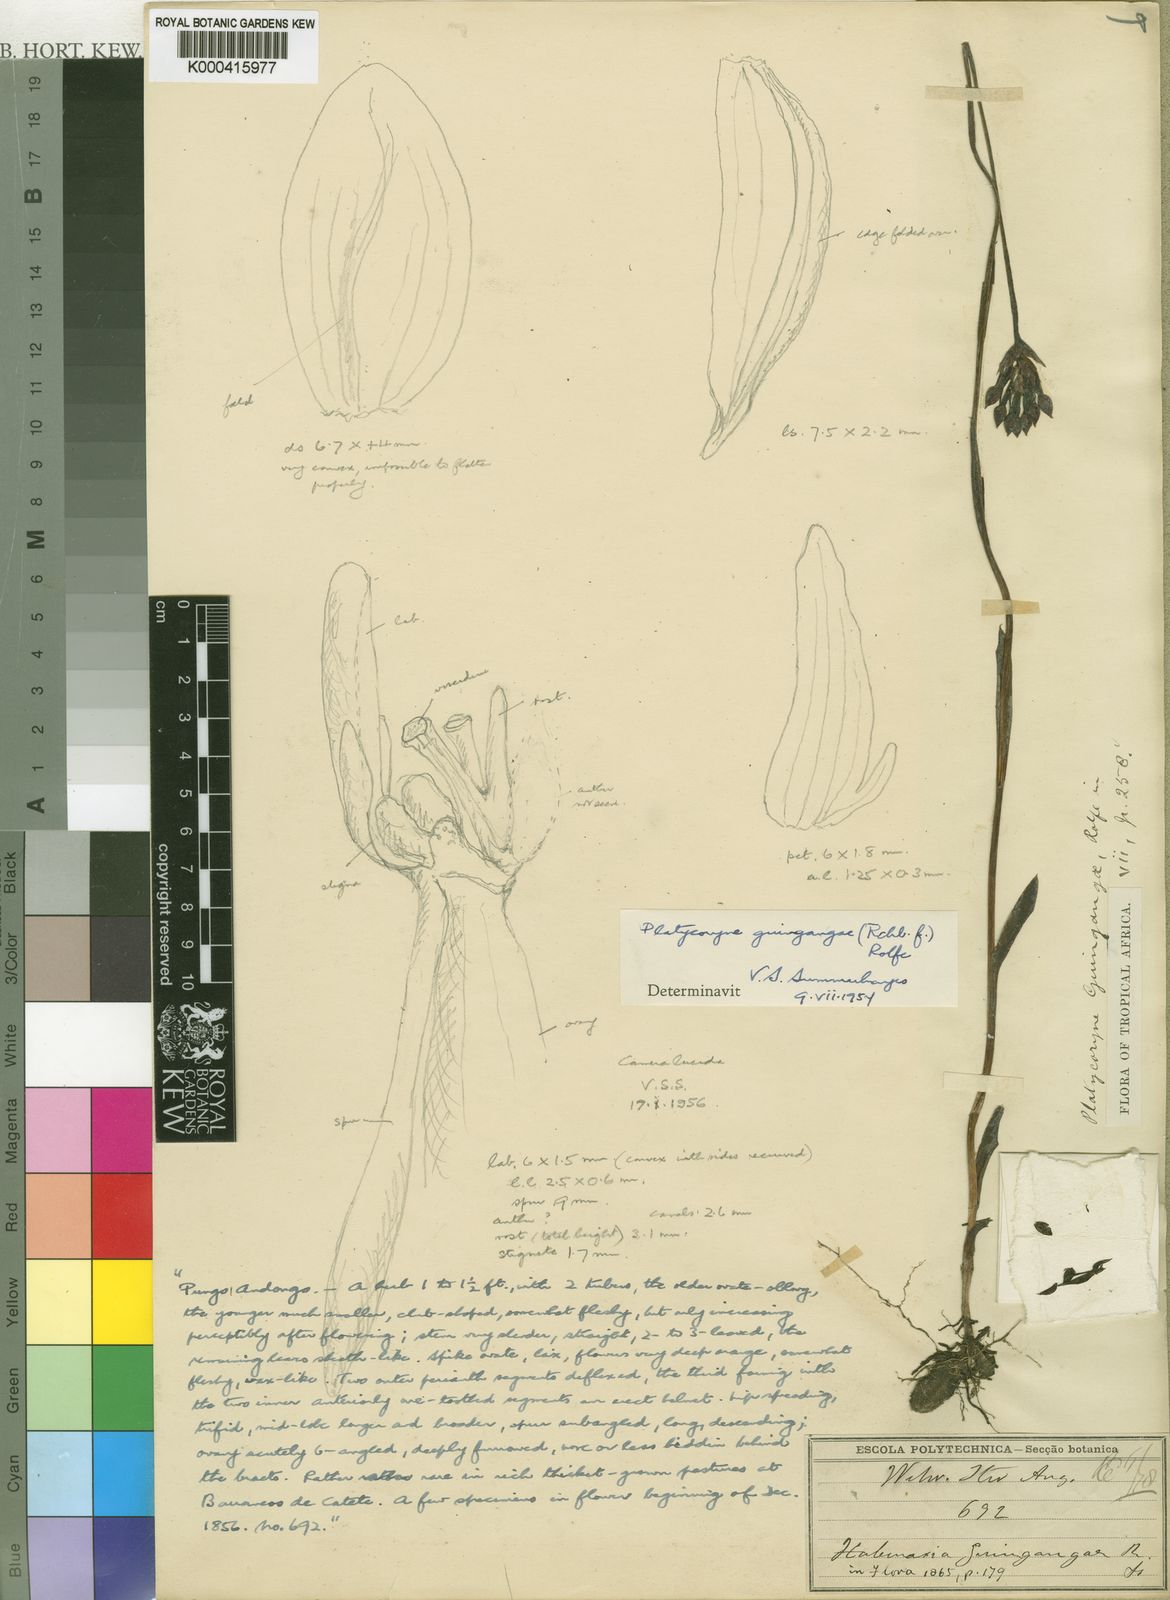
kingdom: Plantae
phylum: Tracheophyta
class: Liliopsida
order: Asparagales
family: Orchidaceae
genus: Platycoryne
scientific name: Platycoryne guingangae
